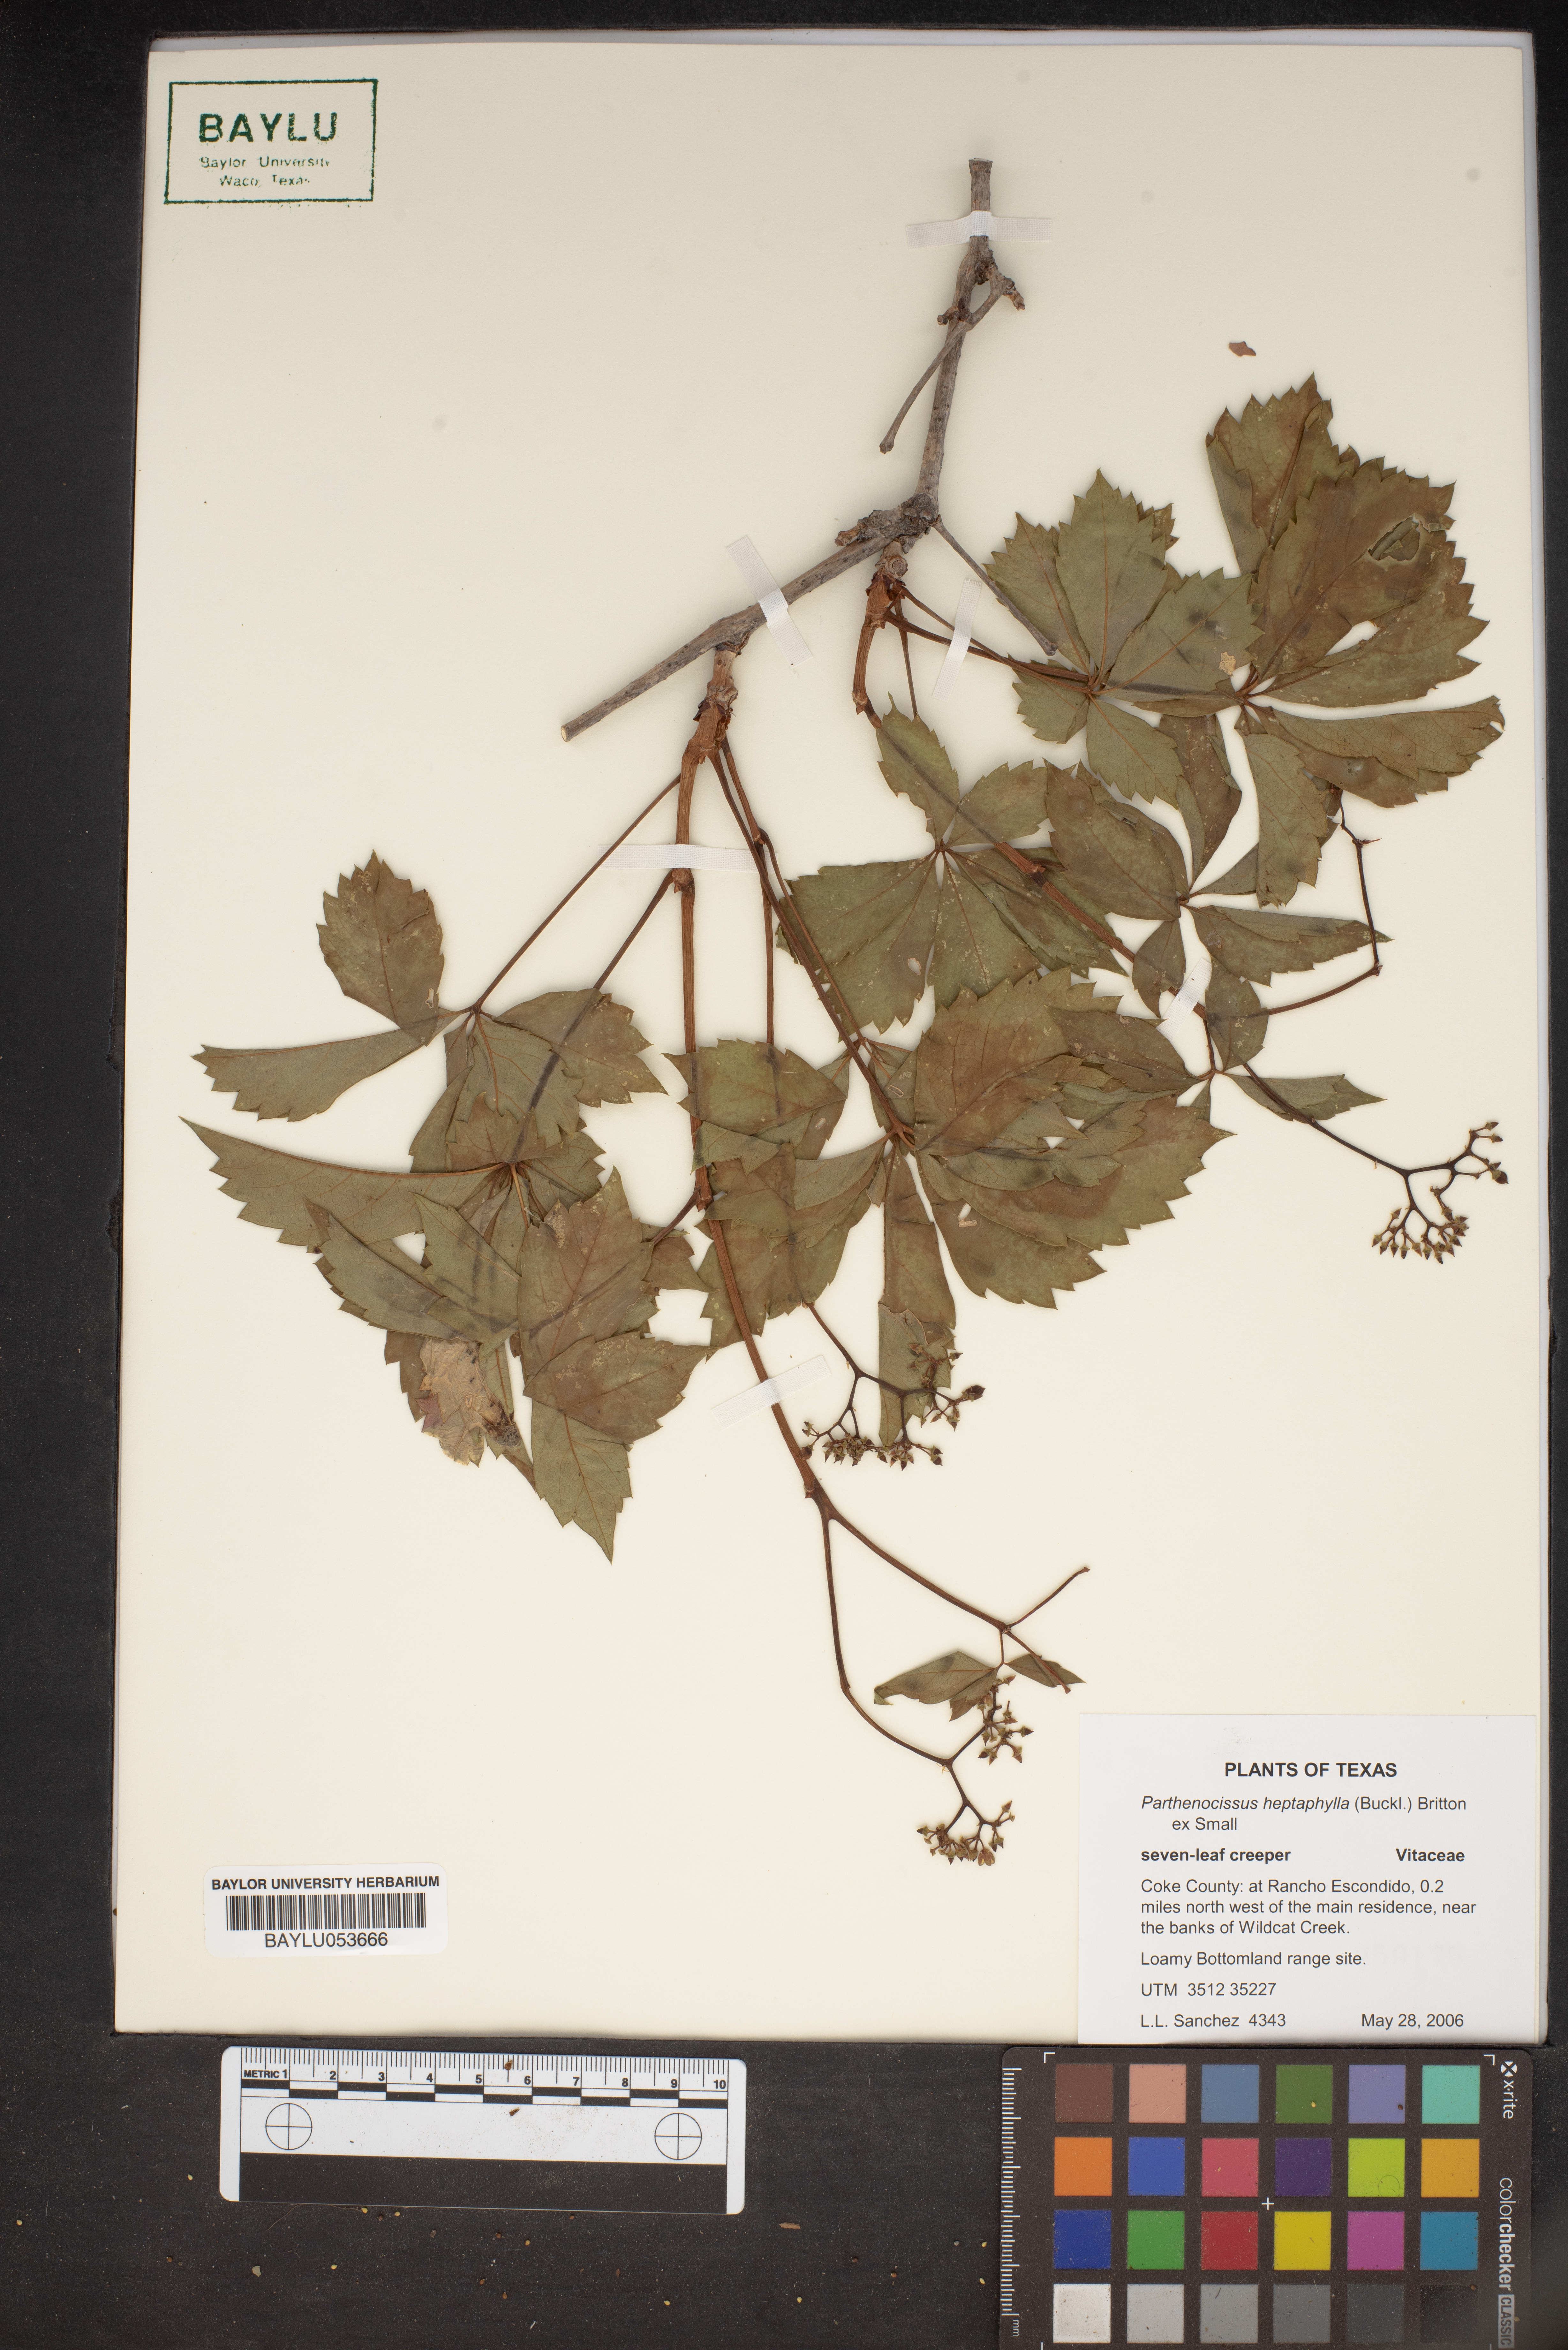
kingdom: Plantae
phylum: Tracheophyta
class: Magnoliopsida
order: Vitales
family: Vitaceae
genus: Parthenocissus
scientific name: Parthenocissus heptaphylla
